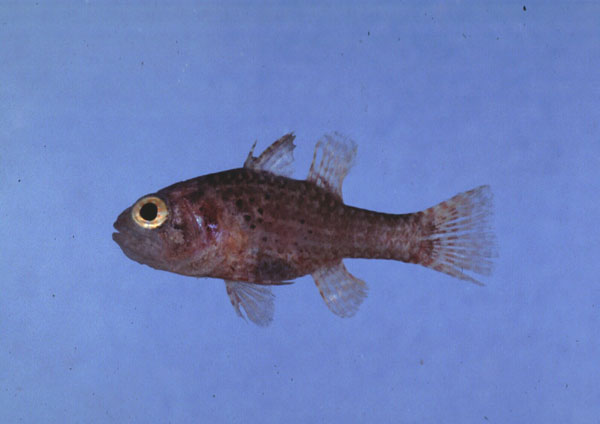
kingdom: Animalia
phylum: Chordata
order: Perciformes
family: Apogonidae
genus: Fowleria
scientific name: Fowleria variegata
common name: Variegated cardinalfish
